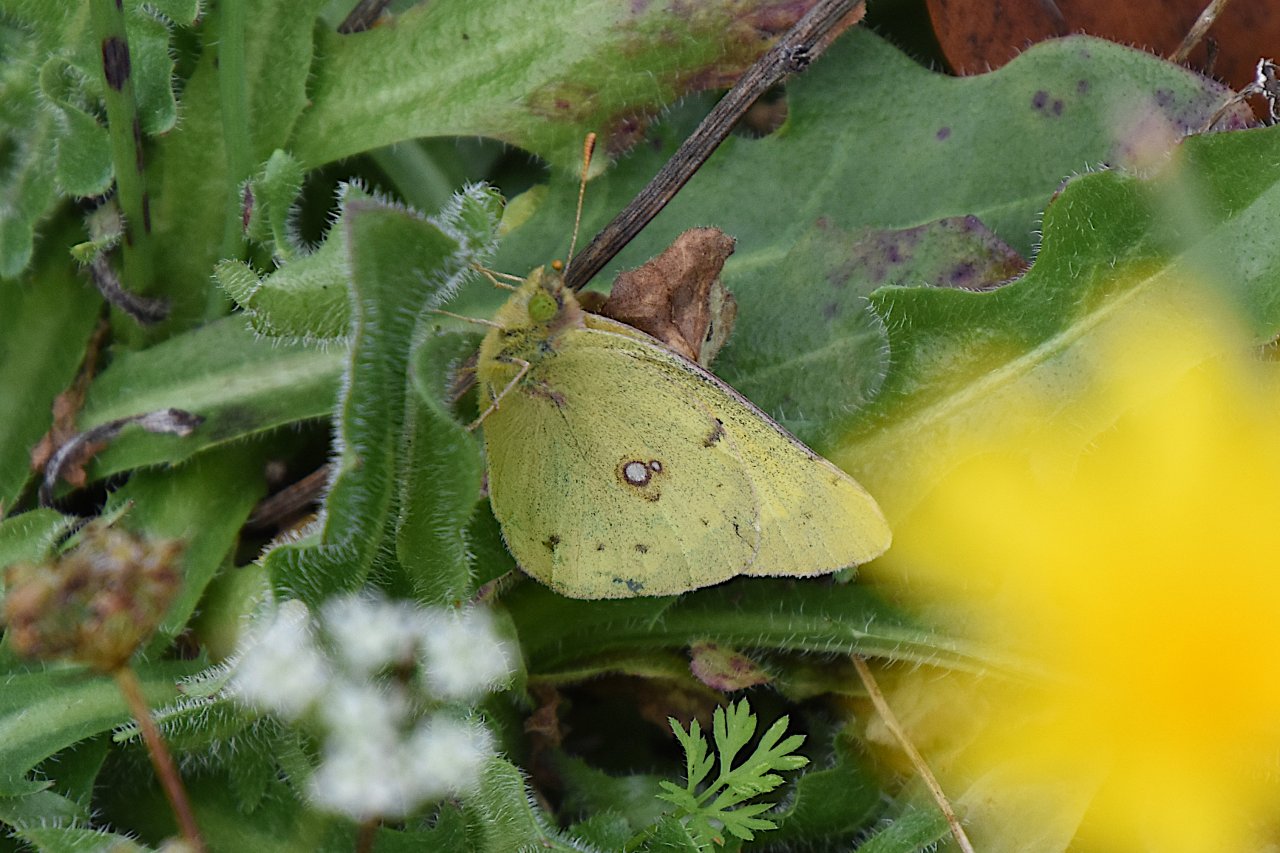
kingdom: Animalia
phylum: Arthropoda
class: Insecta
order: Lepidoptera
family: Pieridae
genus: Colias
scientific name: Colias eurytheme
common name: Orange Sulphur
